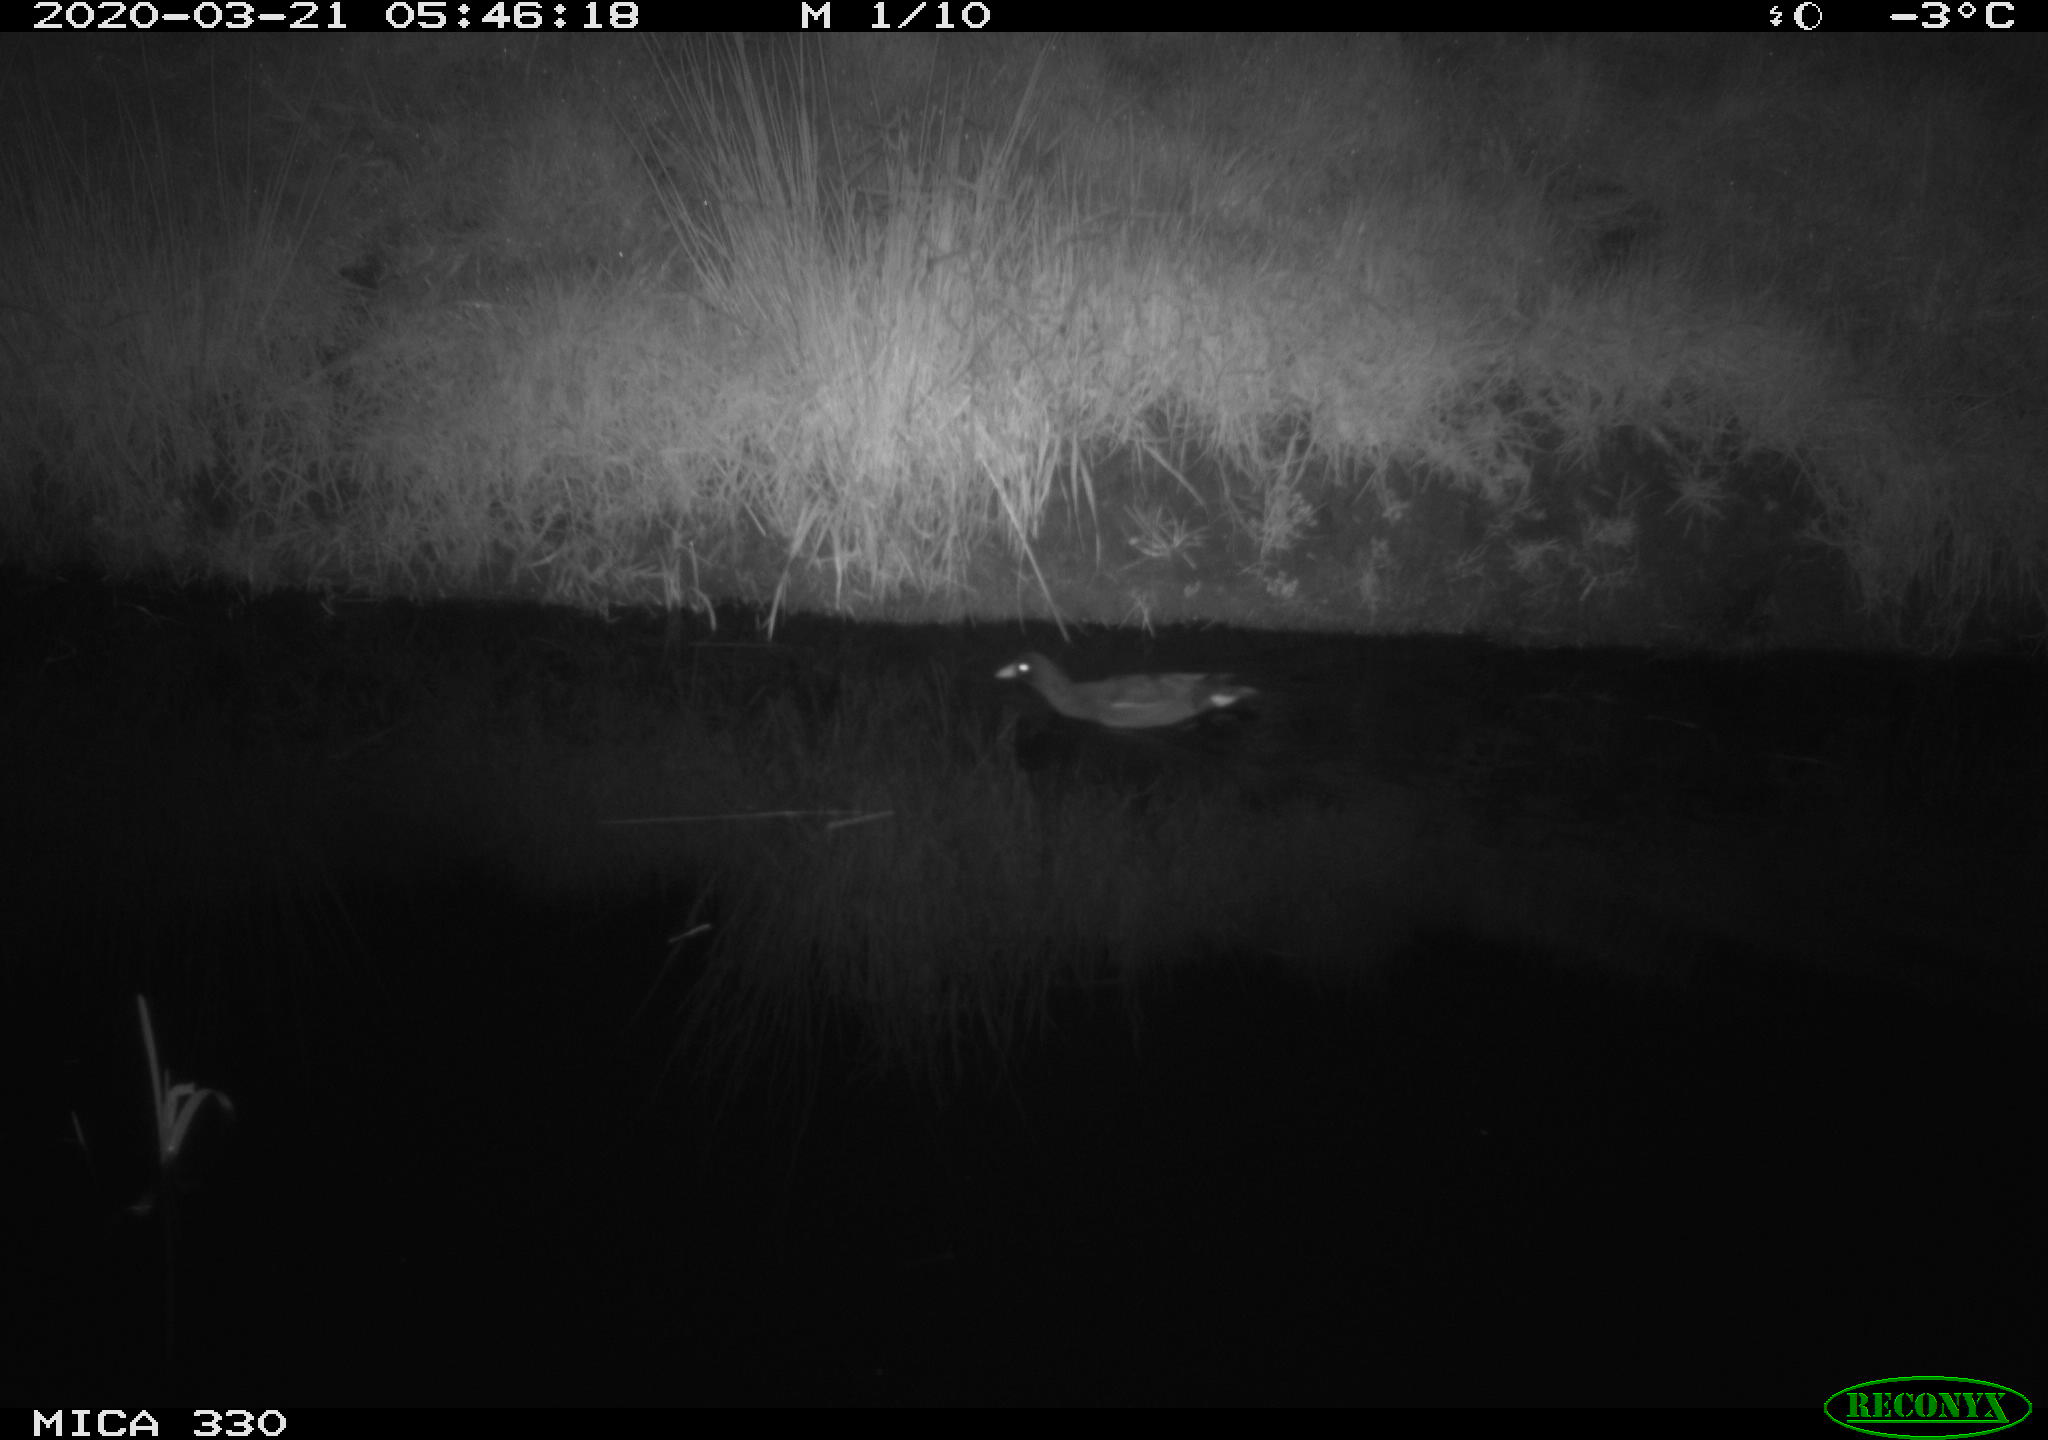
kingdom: Animalia
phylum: Chordata
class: Aves
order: Gruiformes
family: Rallidae
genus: Gallinula
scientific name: Gallinula chloropus
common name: Common moorhen
